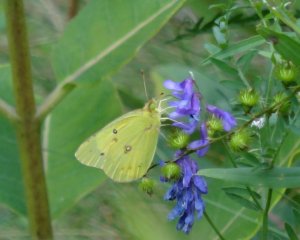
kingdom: Animalia
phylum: Arthropoda
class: Insecta
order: Lepidoptera
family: Pieridae
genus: Colias
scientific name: Colias philodice
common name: Clouded Sulphur
